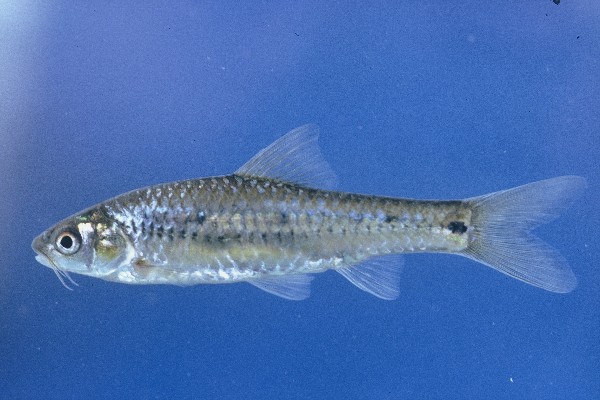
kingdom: Animalia
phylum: Chordata
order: Cypriniformes
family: Cyprinidae
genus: Enteromius
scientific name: Enteromius lineomaculatus
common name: Line-spotted barb
